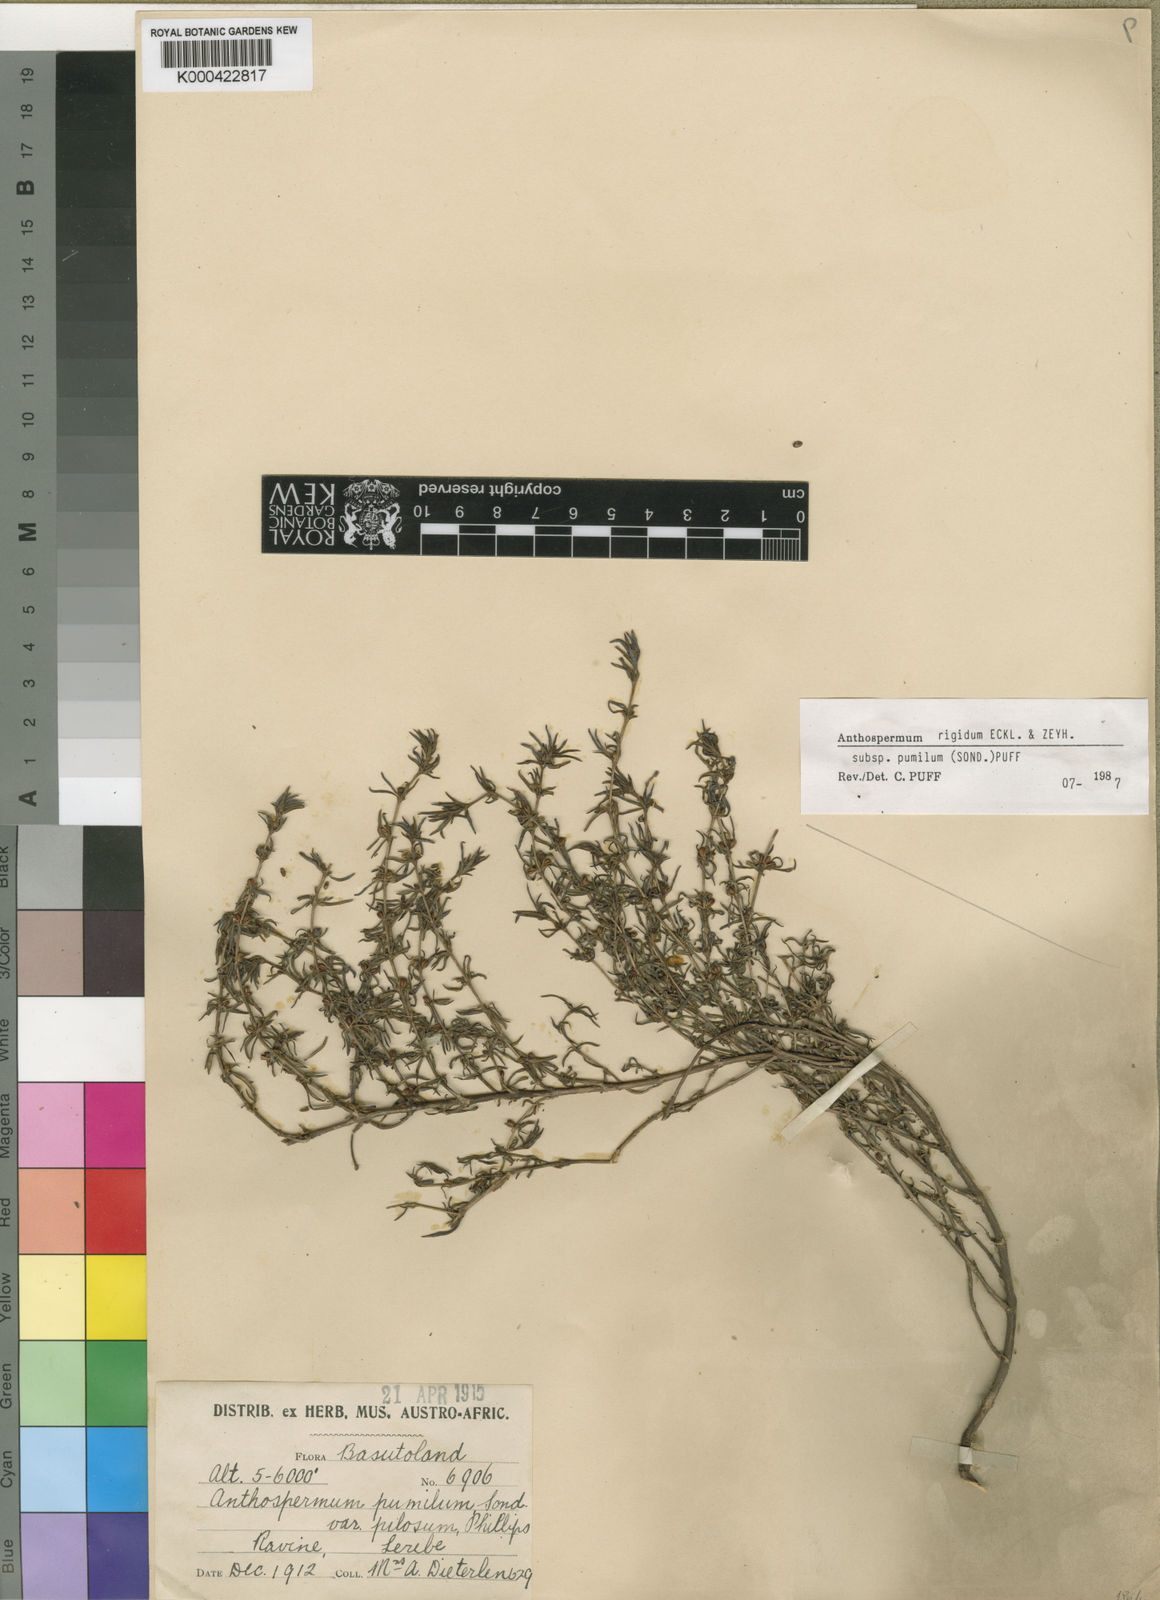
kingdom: Plantae
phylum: Tracheophyta
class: Magnoliopsida
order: Gentianales
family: Rubiaceae
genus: Anthospermum
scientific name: Anthospermum rigidum
